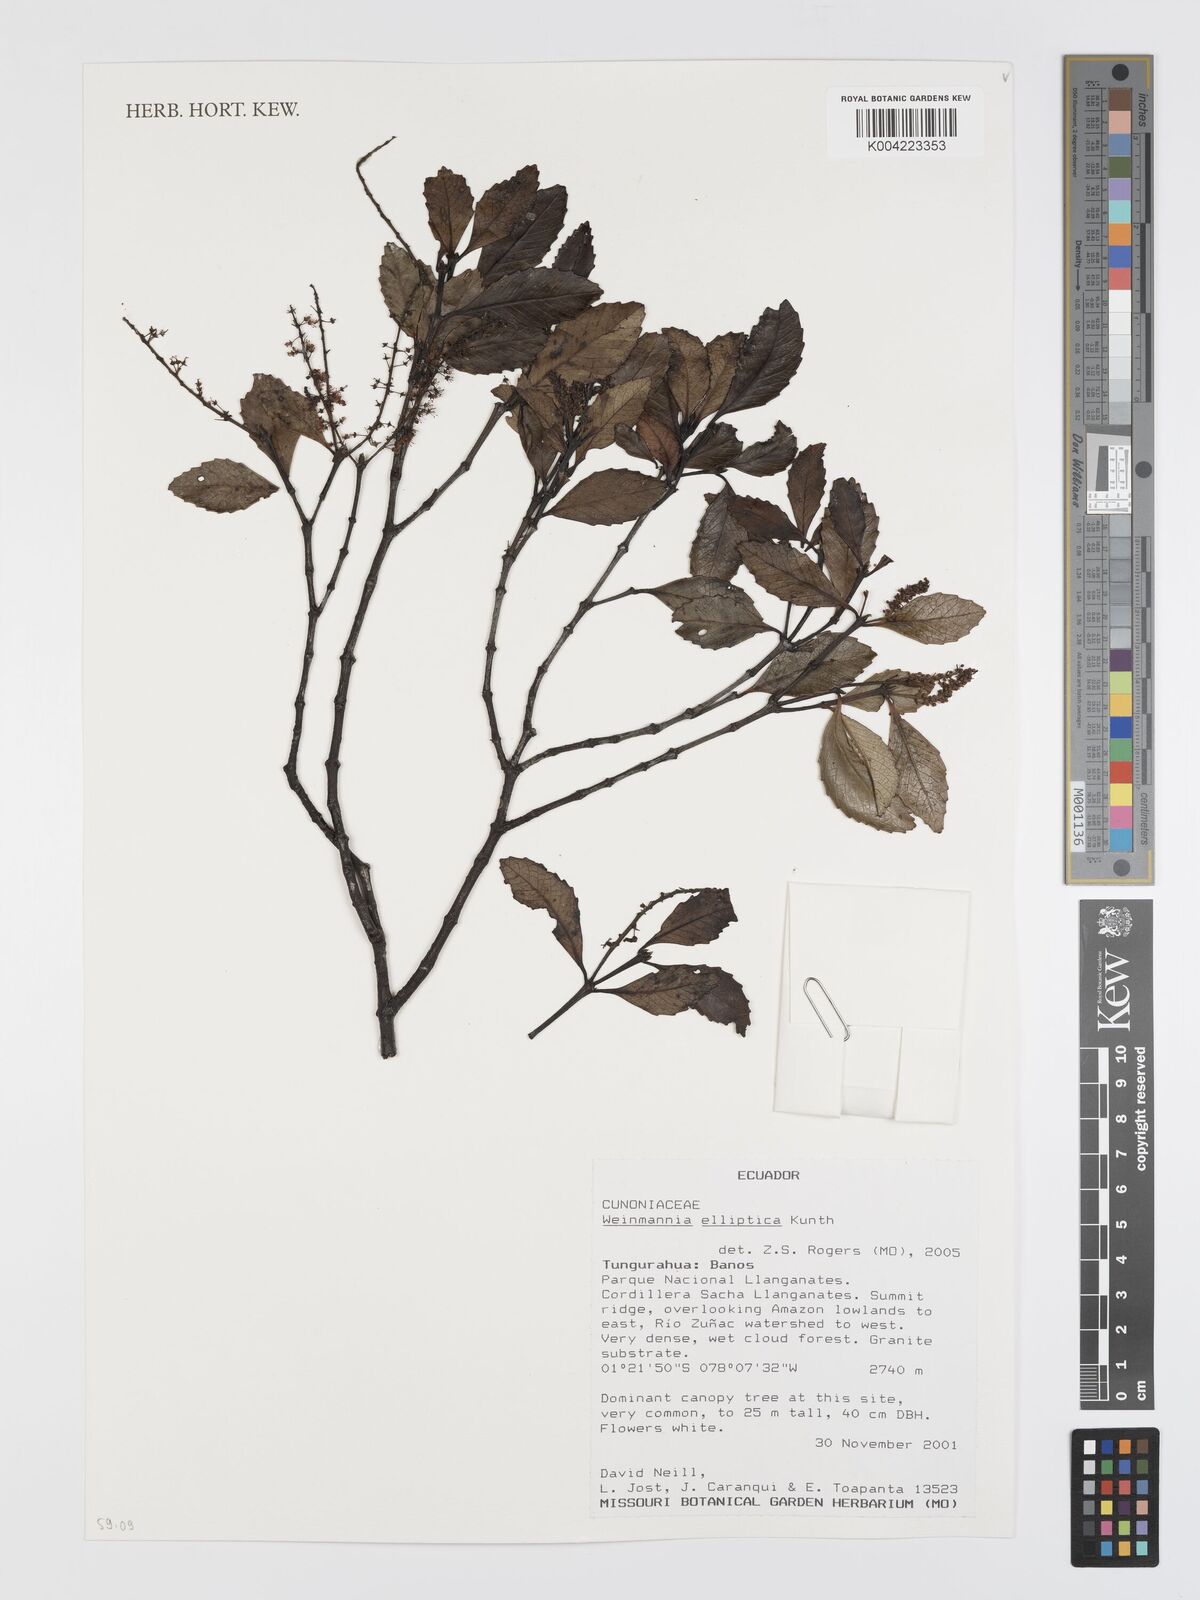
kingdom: Plantae
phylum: Tracheophyta
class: Magnoliopsida
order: Oxalidales
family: Cunoniaceae
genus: Weinmannia
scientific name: Weinmannia elliptica
